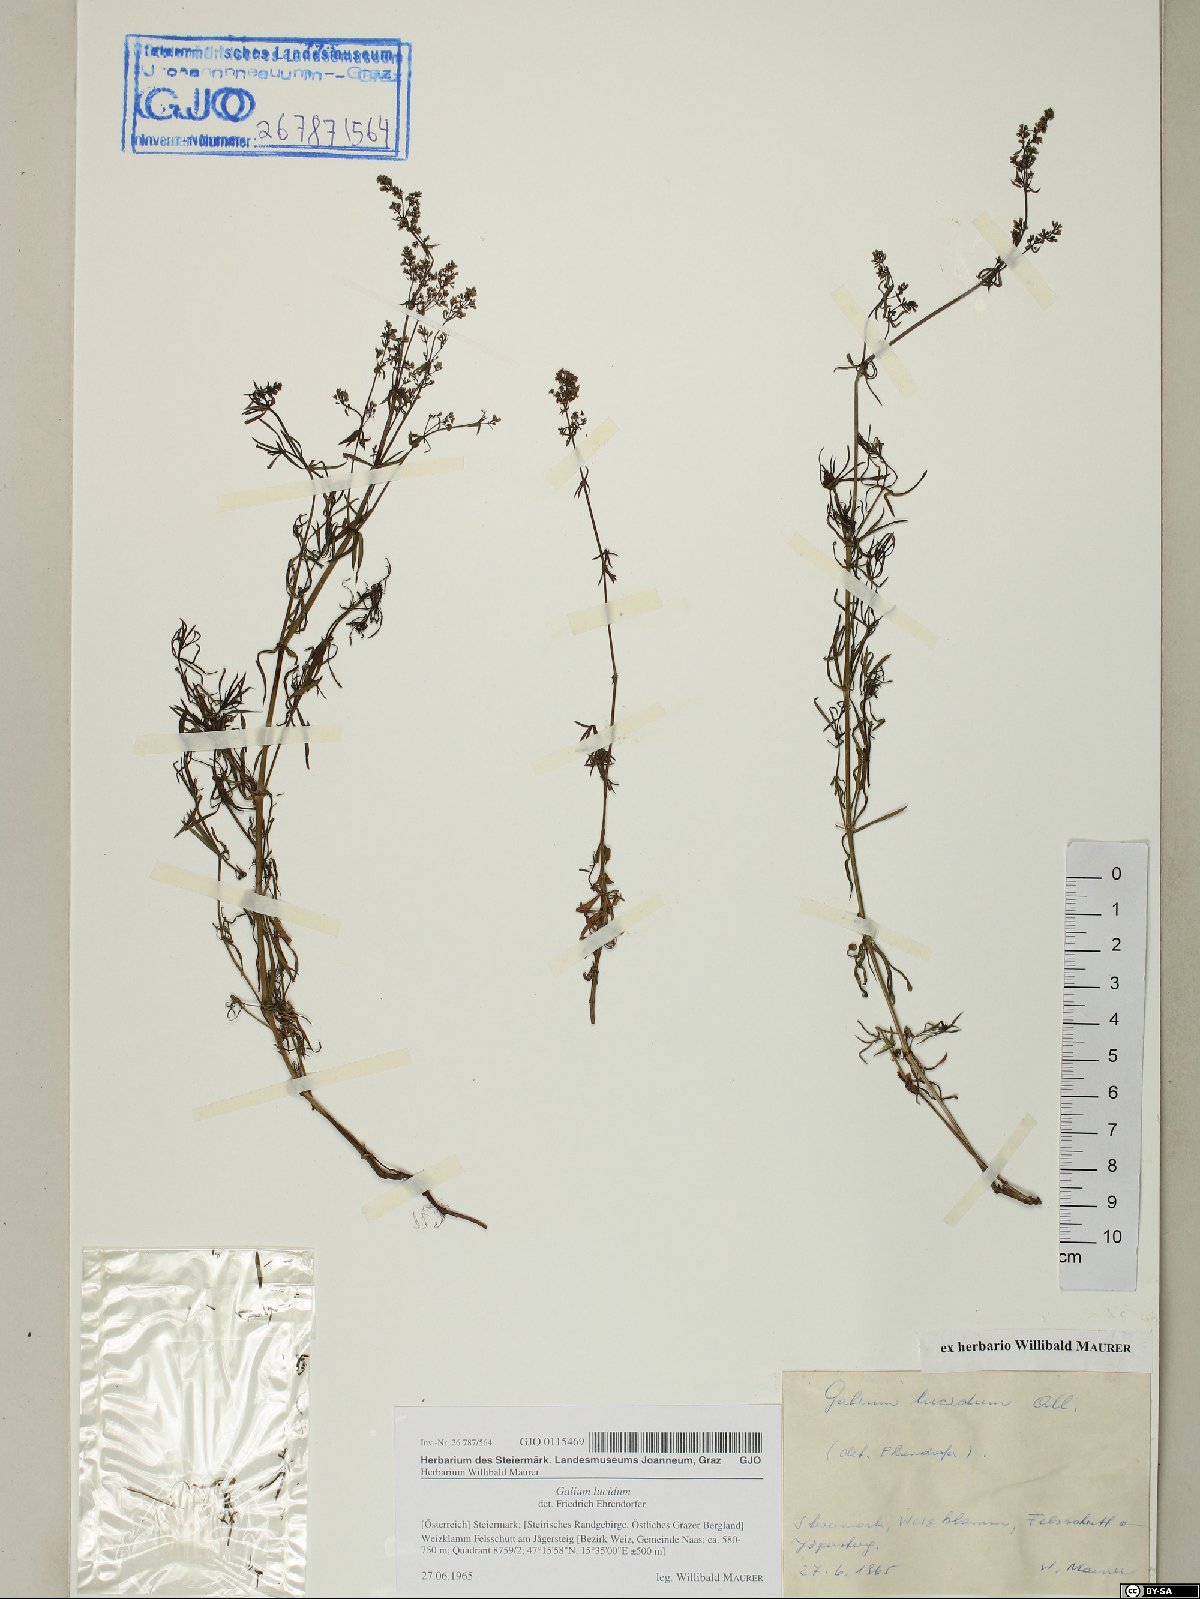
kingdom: Plantae
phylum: Tracheophyta
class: Magnoliopsida
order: Gentianales
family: Rubiaceae
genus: Galium
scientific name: Galium lucidum
